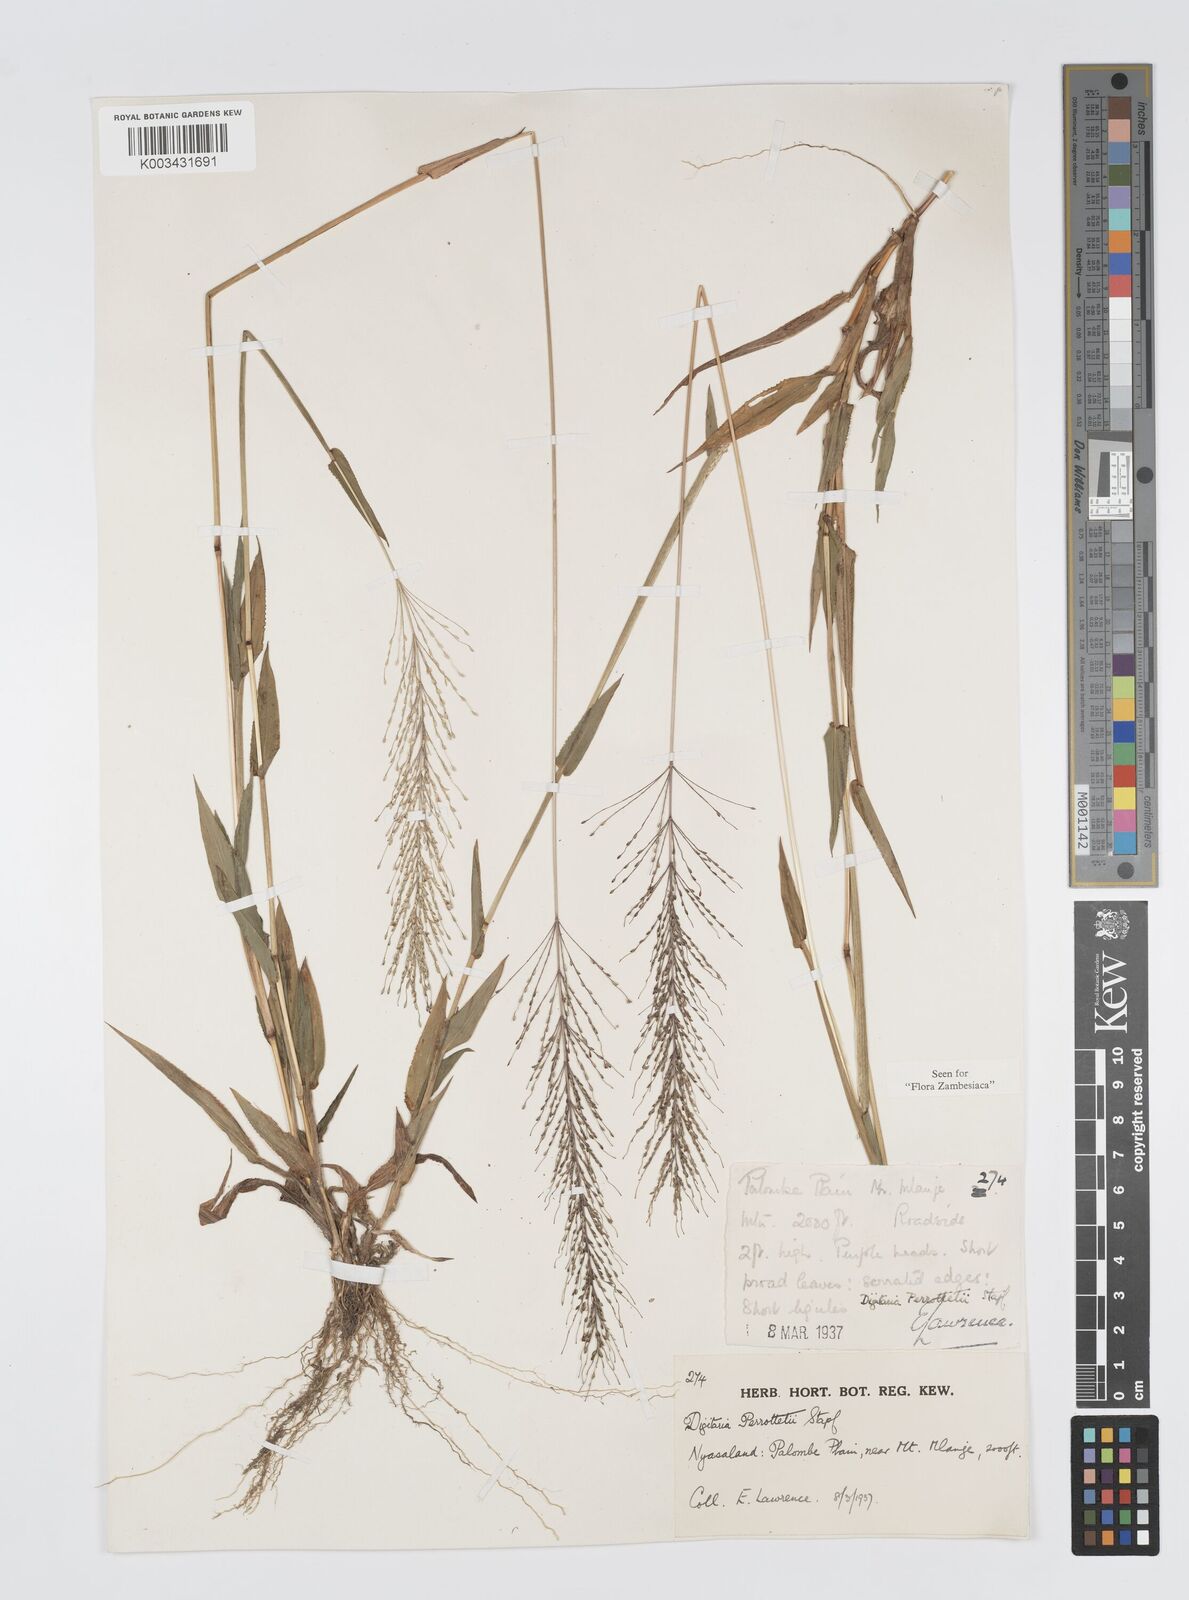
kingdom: Plantae
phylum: Tracheophyta
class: Liliopsida
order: Poales
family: Poaceae
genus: Digitaria
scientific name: Digitaria perrottetii
